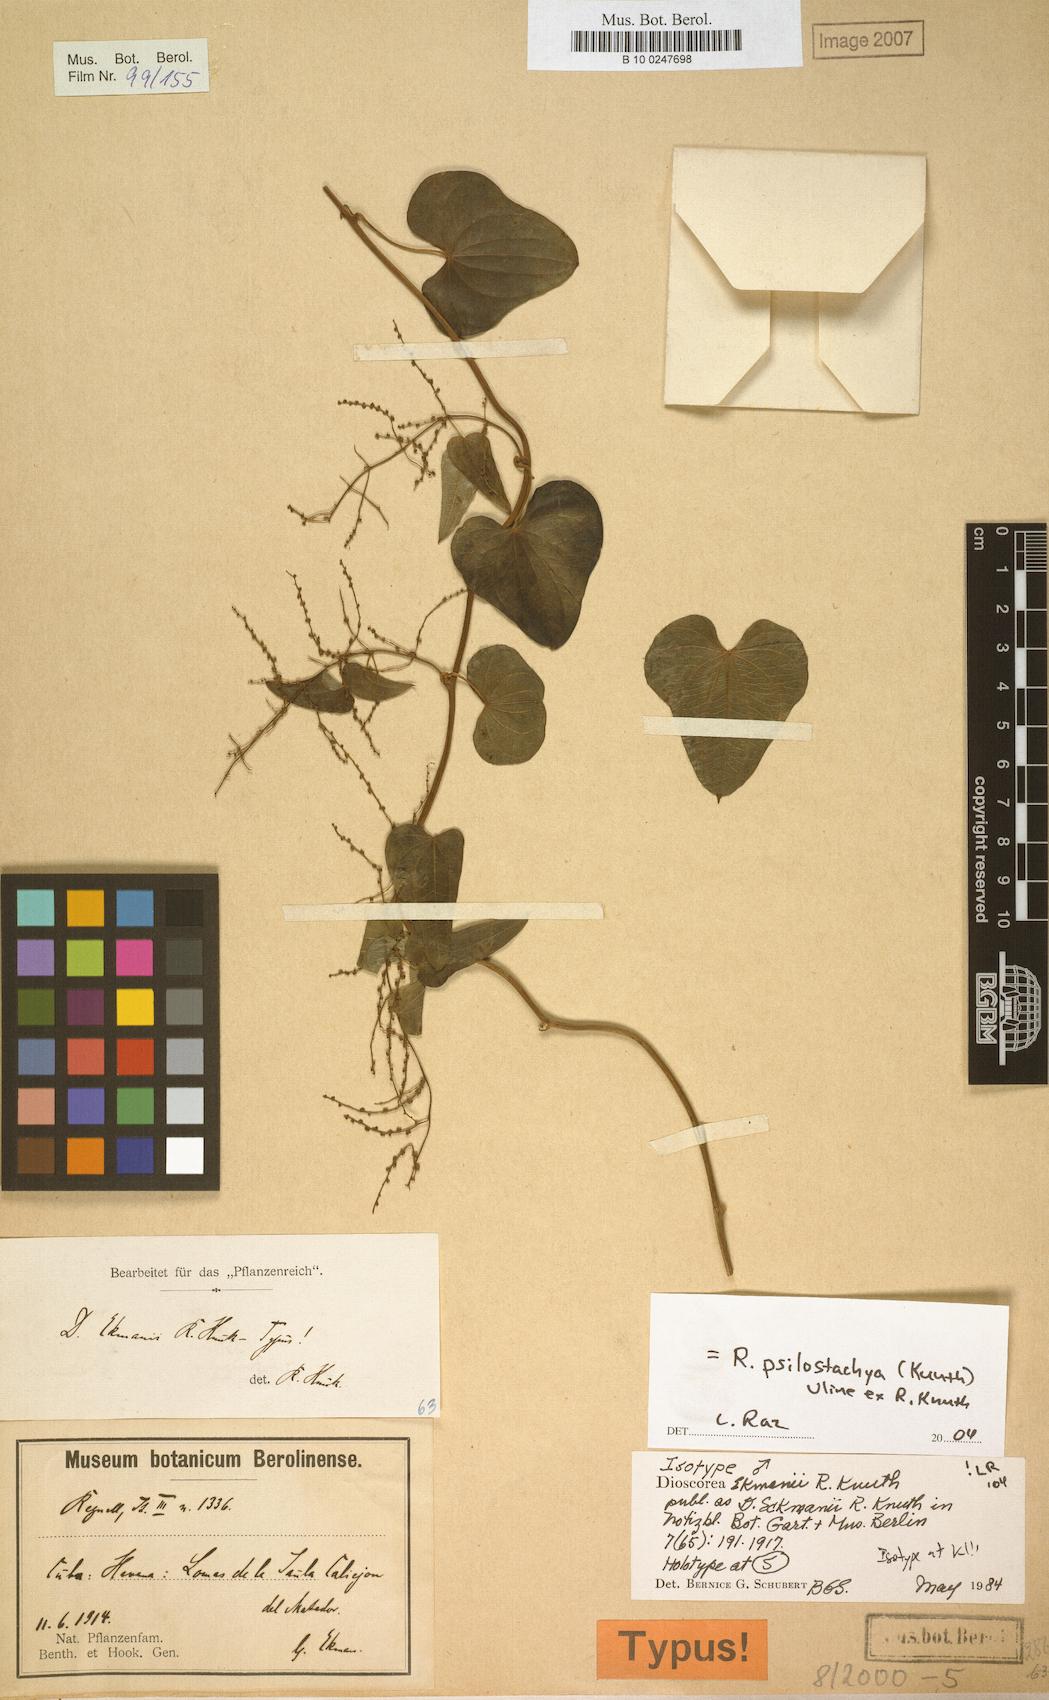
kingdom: Plantae
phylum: Tracheophyta
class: Liliopsida
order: Dioscoreales
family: Dioscoreaceae
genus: Dioscorea
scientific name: Dioscorea psilostachya
